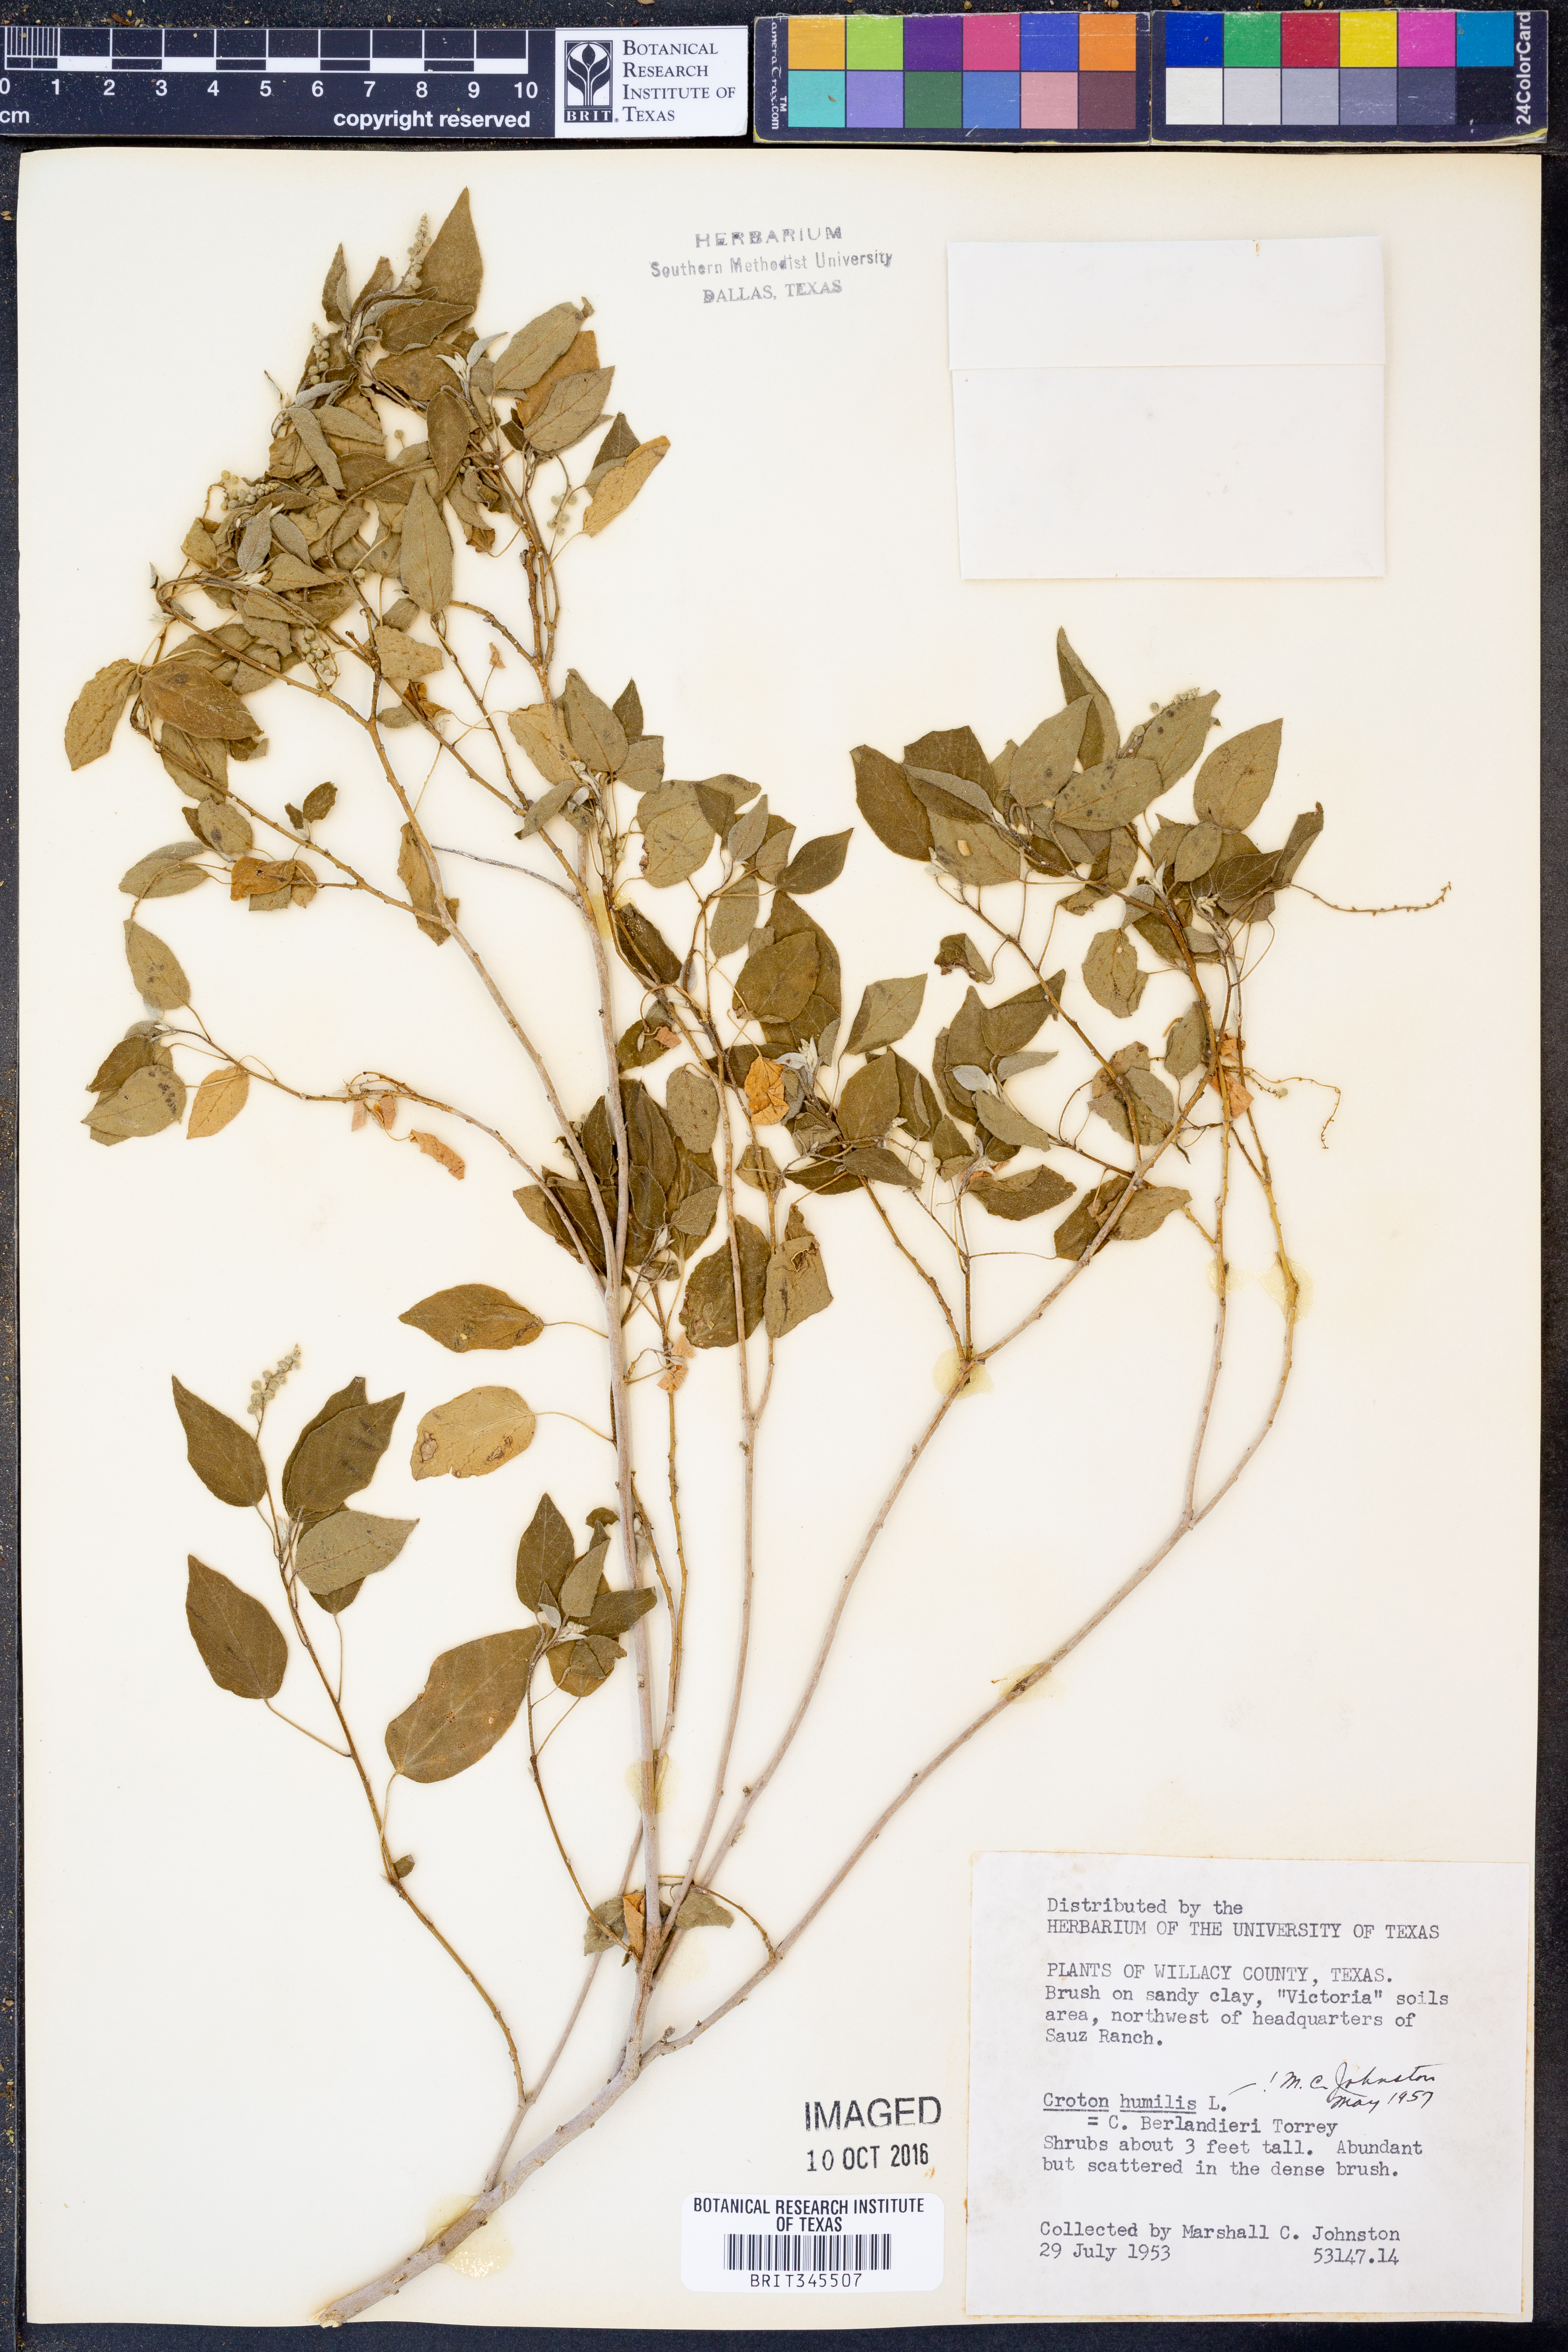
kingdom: Plantae
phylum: Tracheophyta
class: Magnoliopsida
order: Malpighiales
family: Euphorbiaceae
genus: Croton
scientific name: Croton humilis
